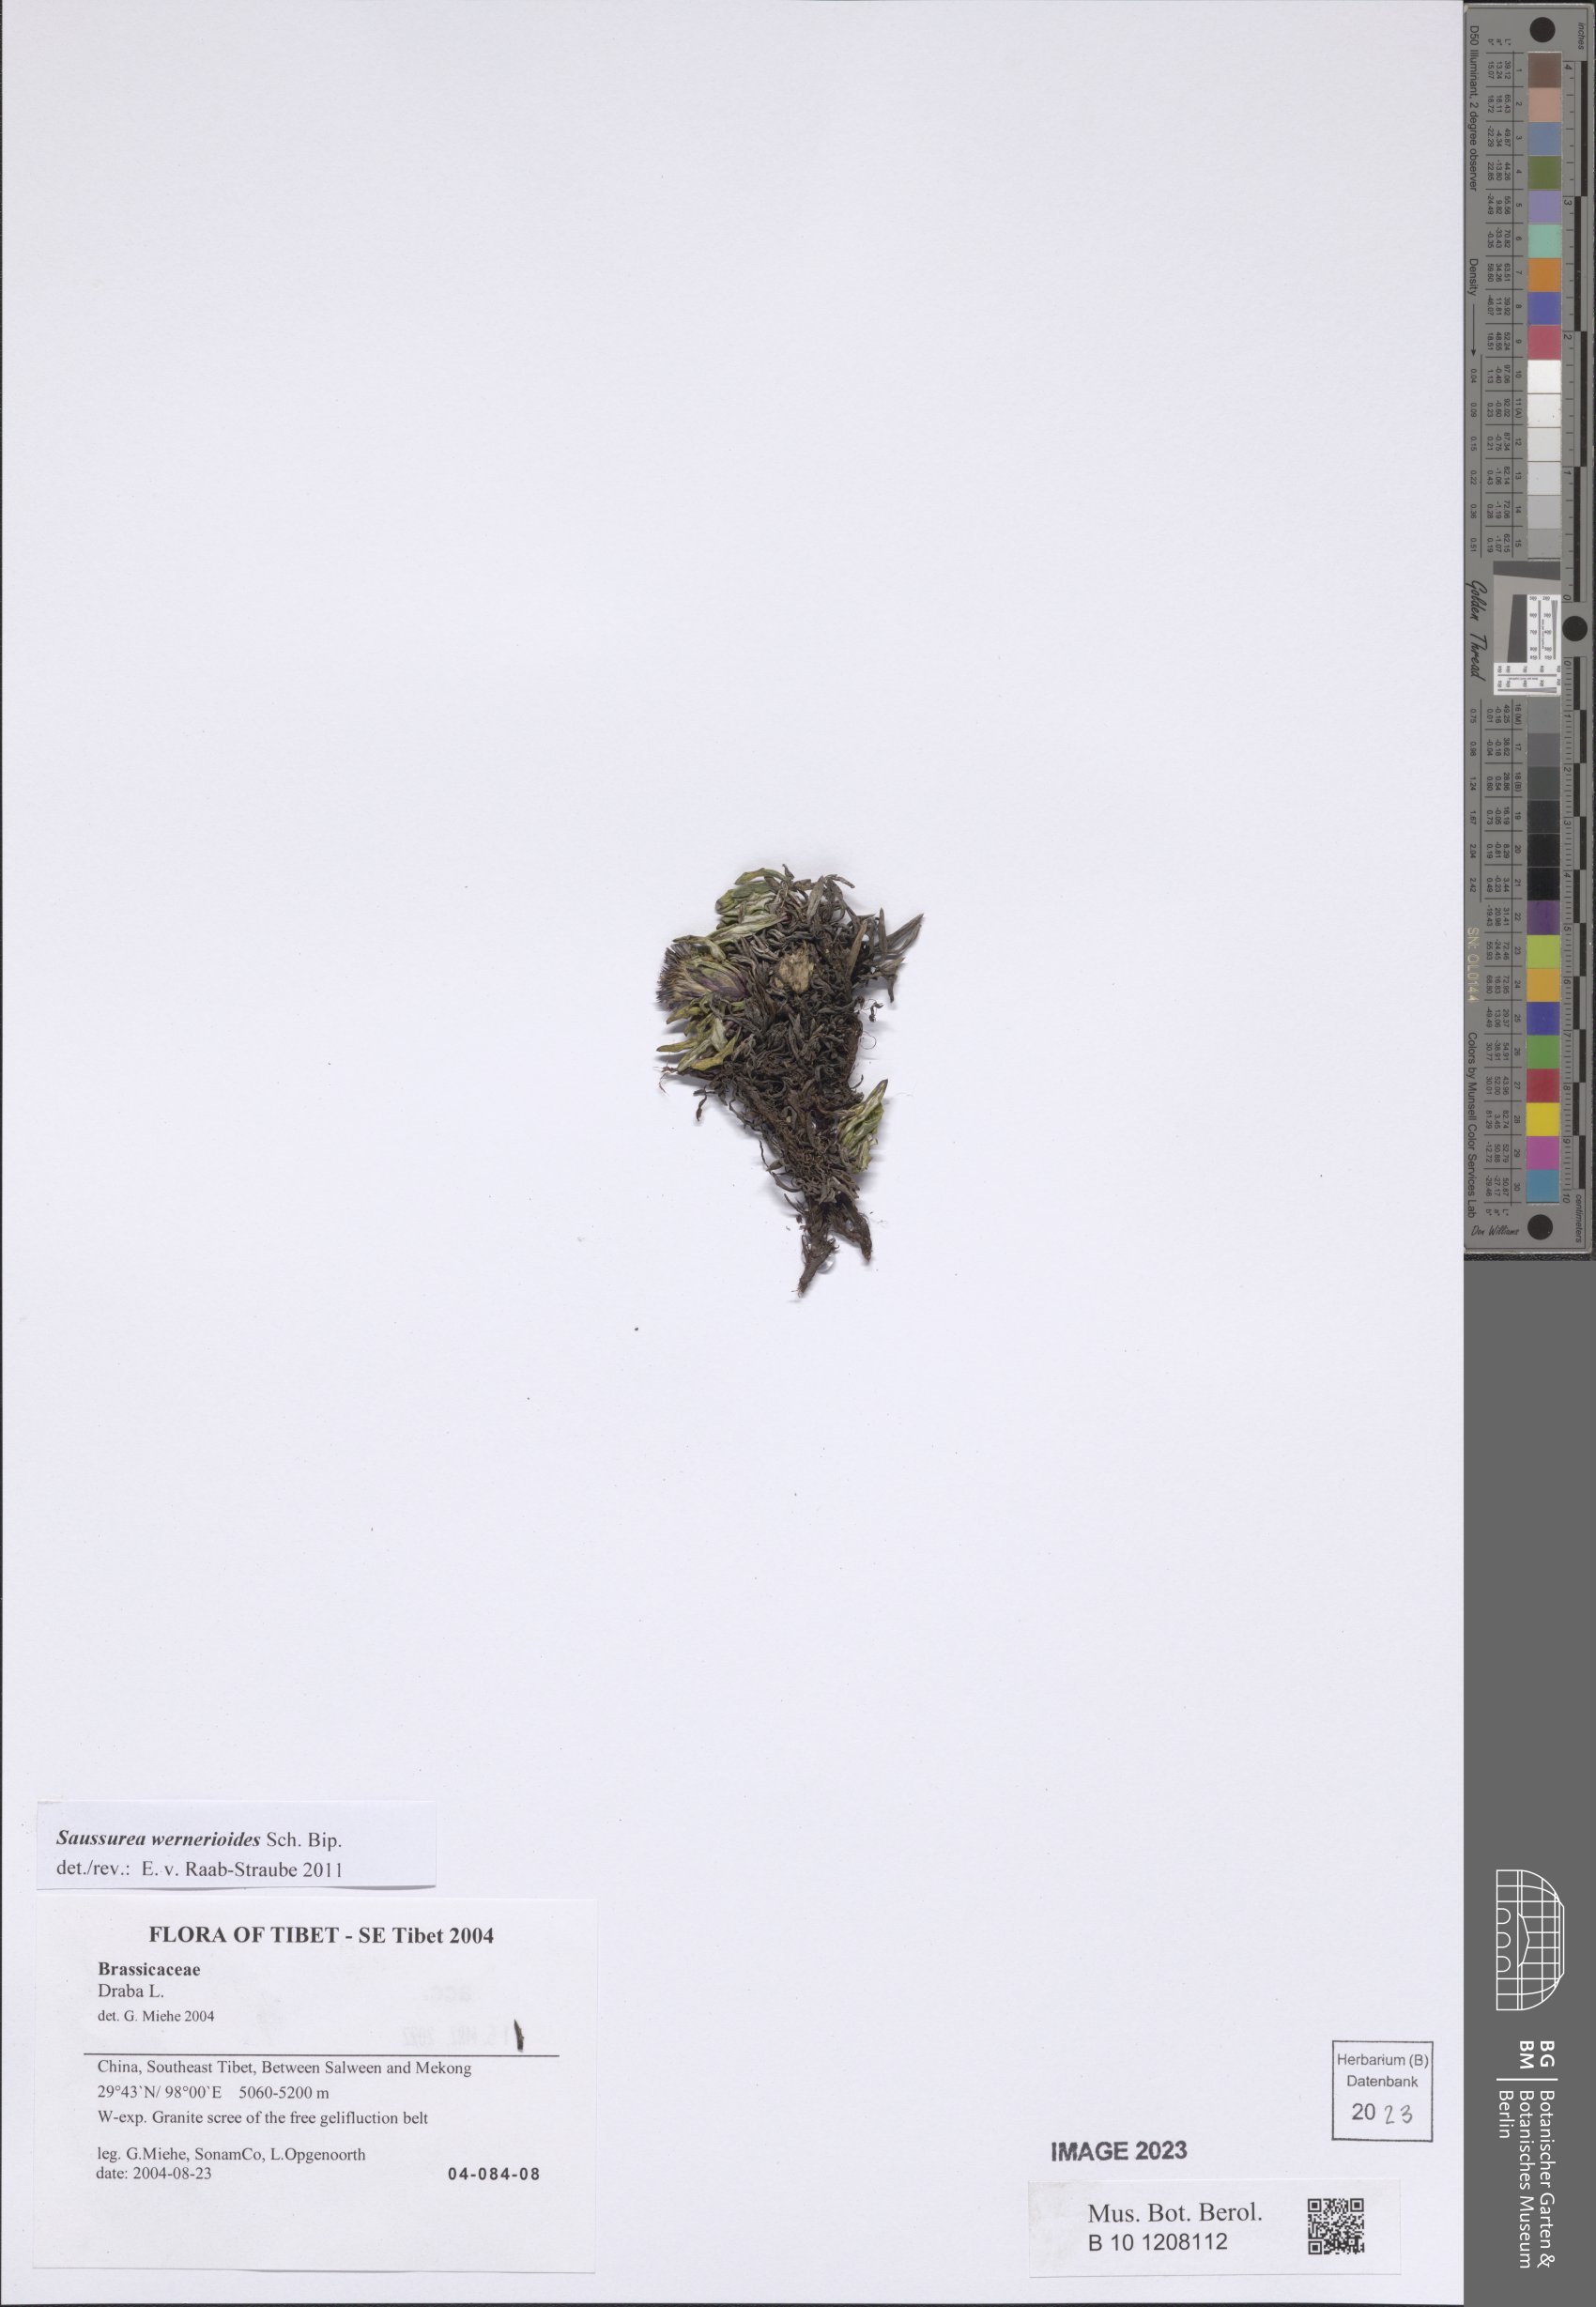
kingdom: Plantae
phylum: Tracheophyta
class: Magnoliopsida
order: Asterales
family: Asteraceae
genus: Saussurea
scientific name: Saussurea wernerioides
